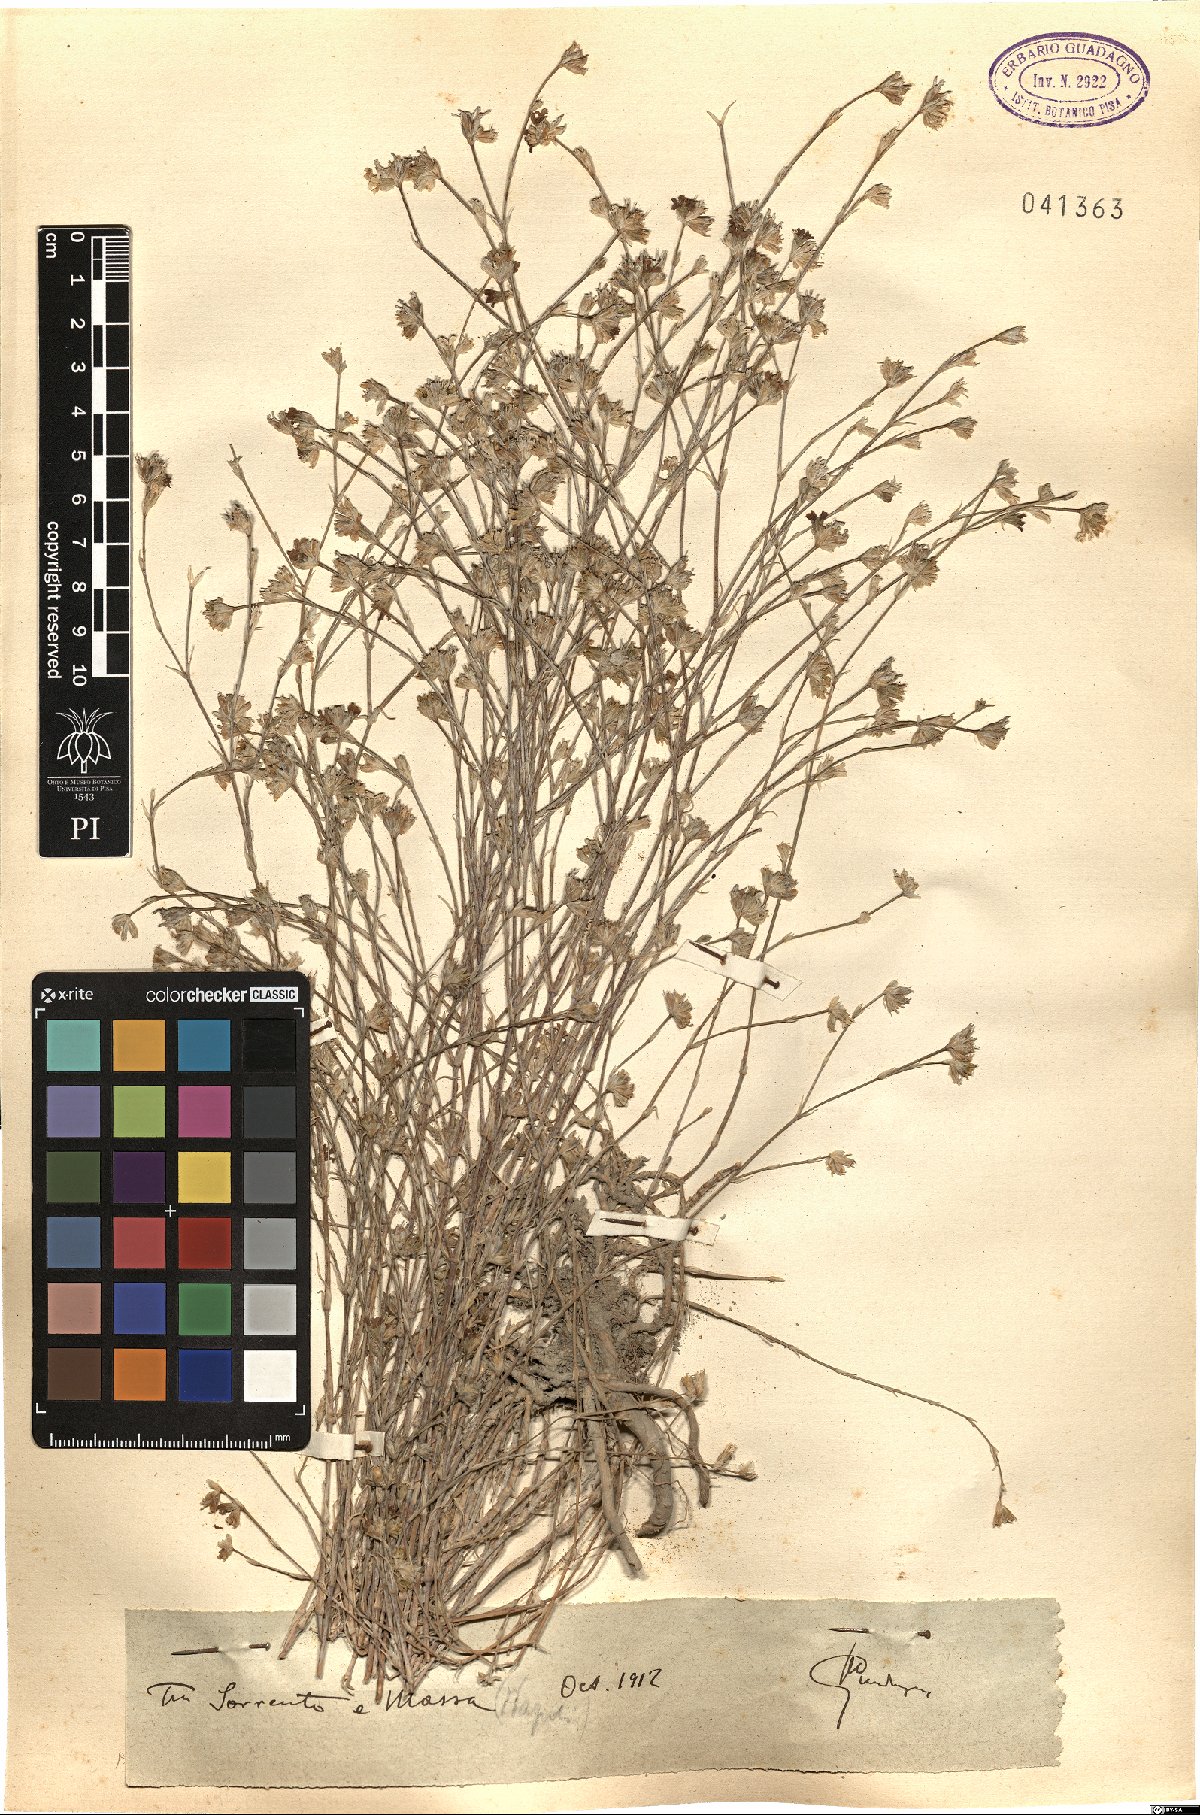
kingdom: Plantae
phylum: Tracheophyta
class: Magnoliopsida
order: Caryophyllales
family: Caryophyllaceae
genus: Tunica
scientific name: Tunica
